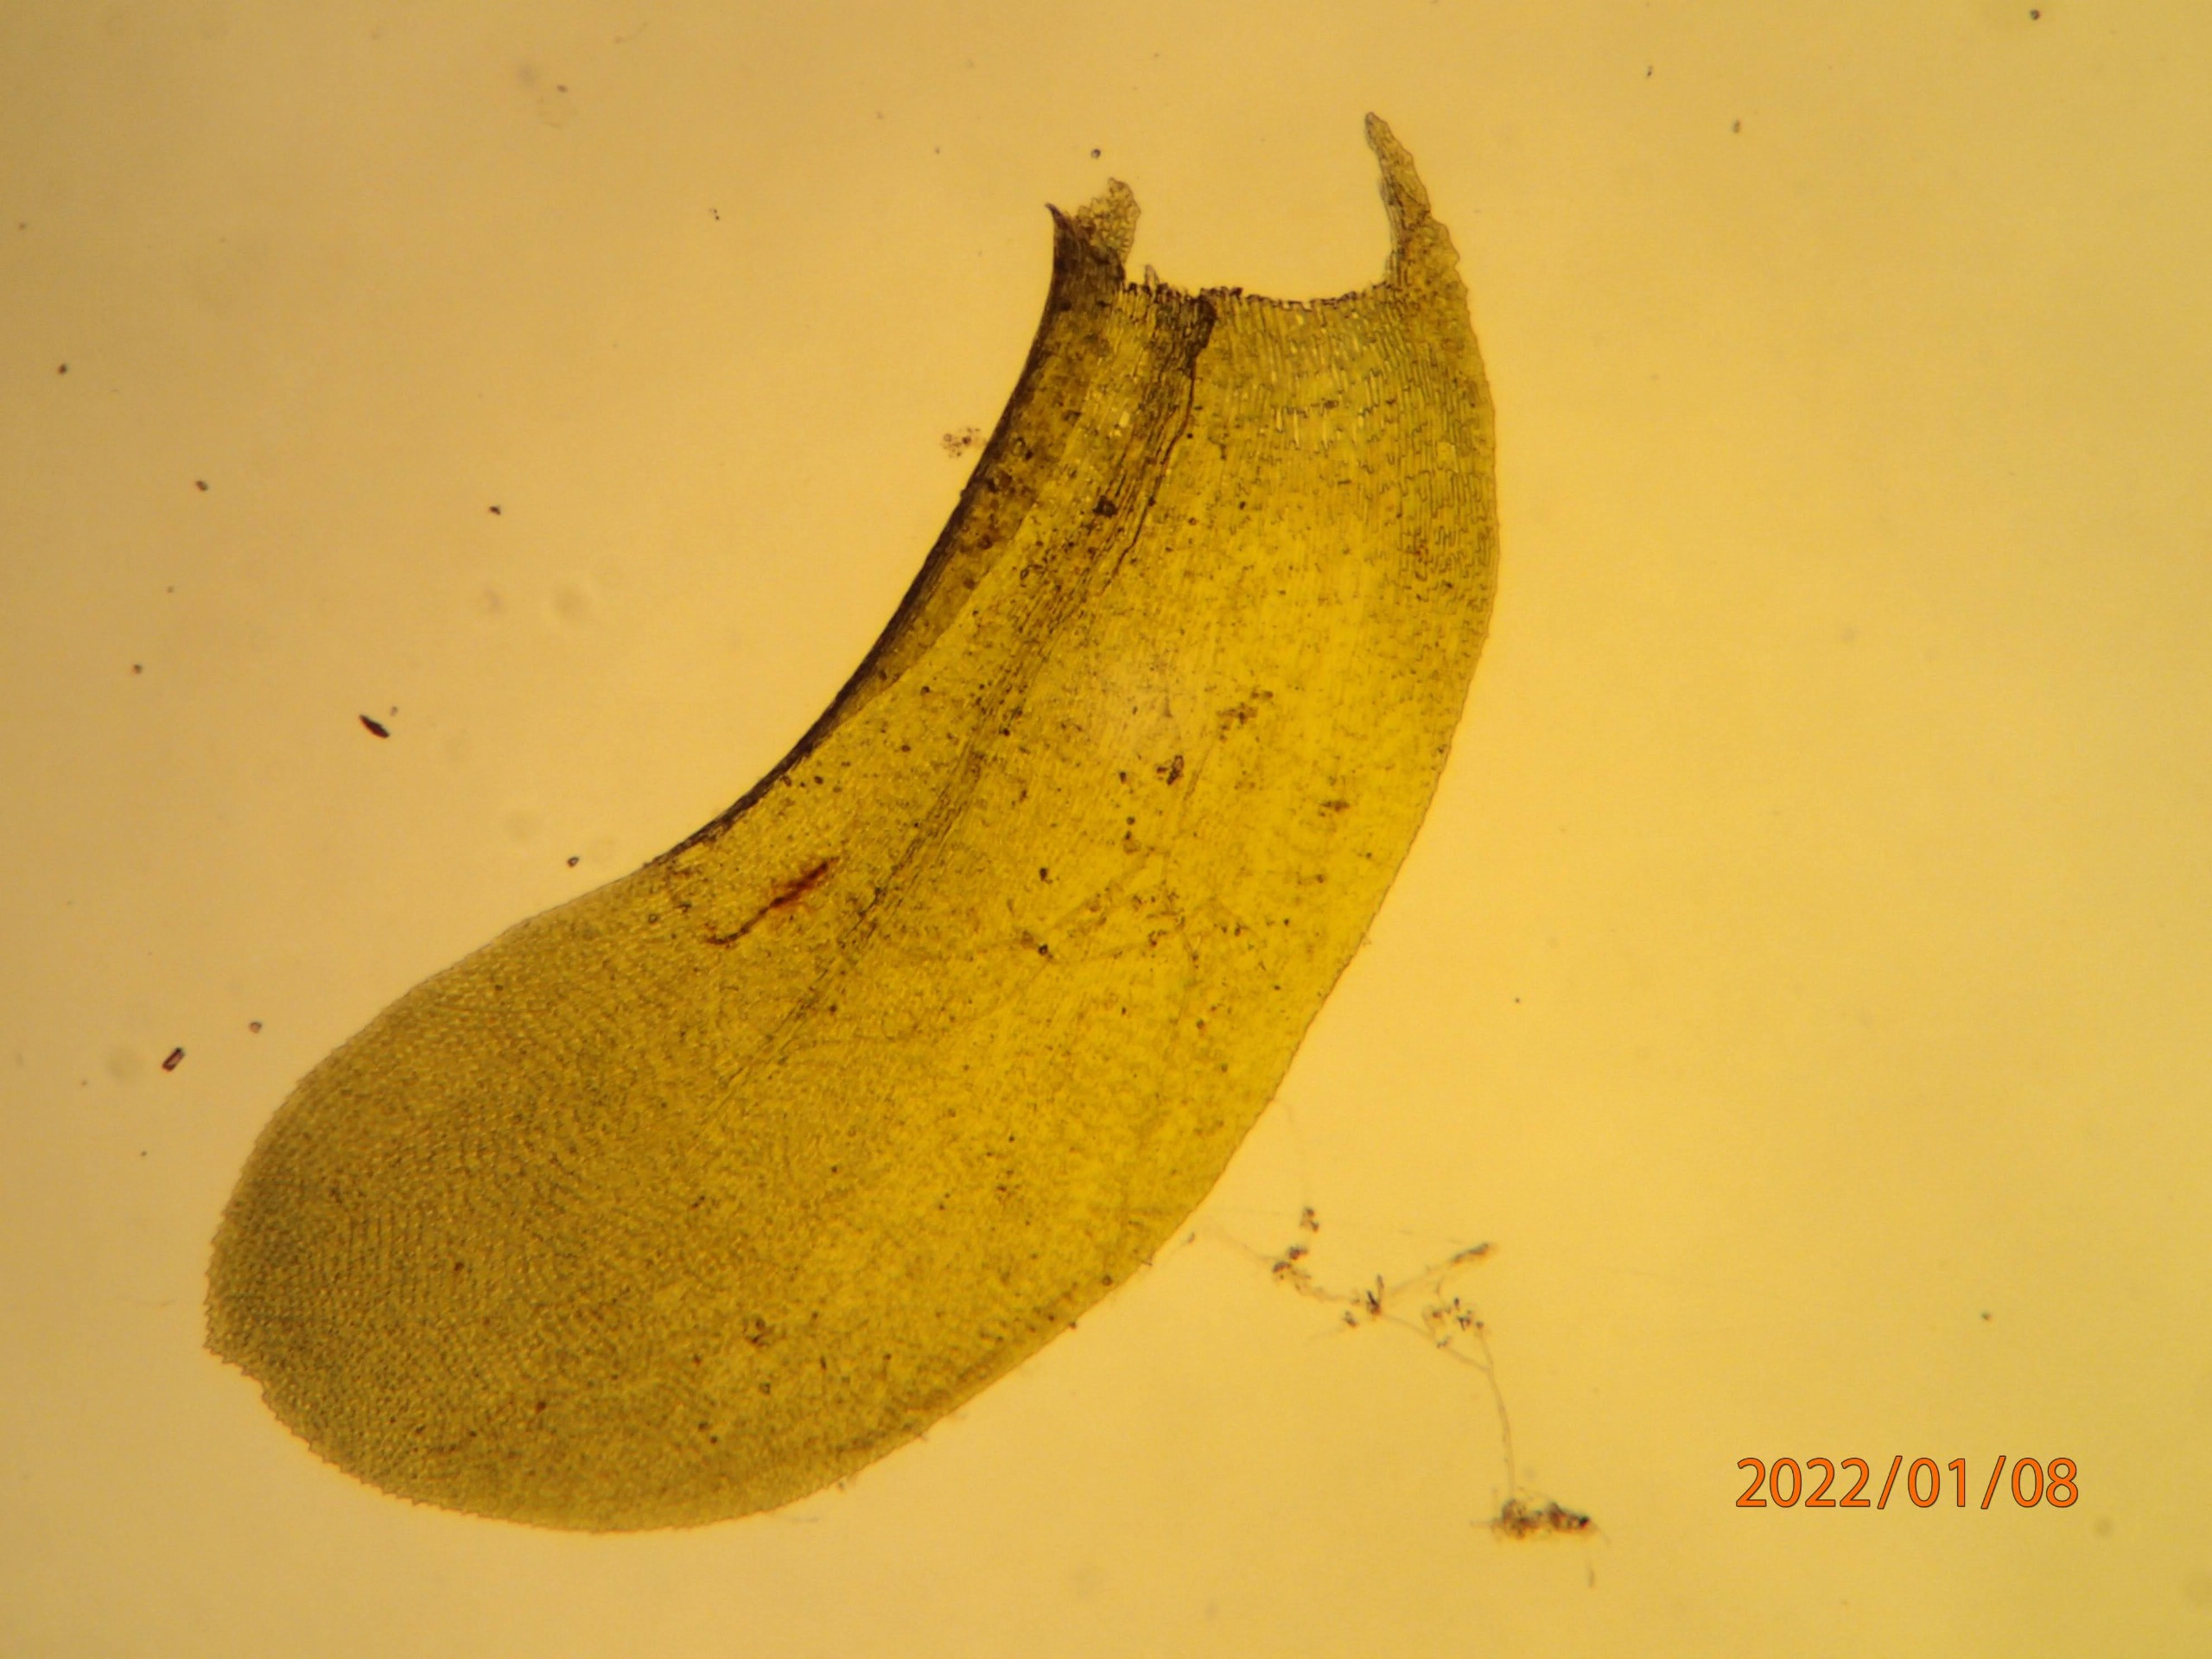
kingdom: Plantae
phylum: Bryophyta
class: Bryopsida
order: Hypnales
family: Neckeraceae
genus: Homalia
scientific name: Homalia trichomanoides
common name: Skov-tungemos
